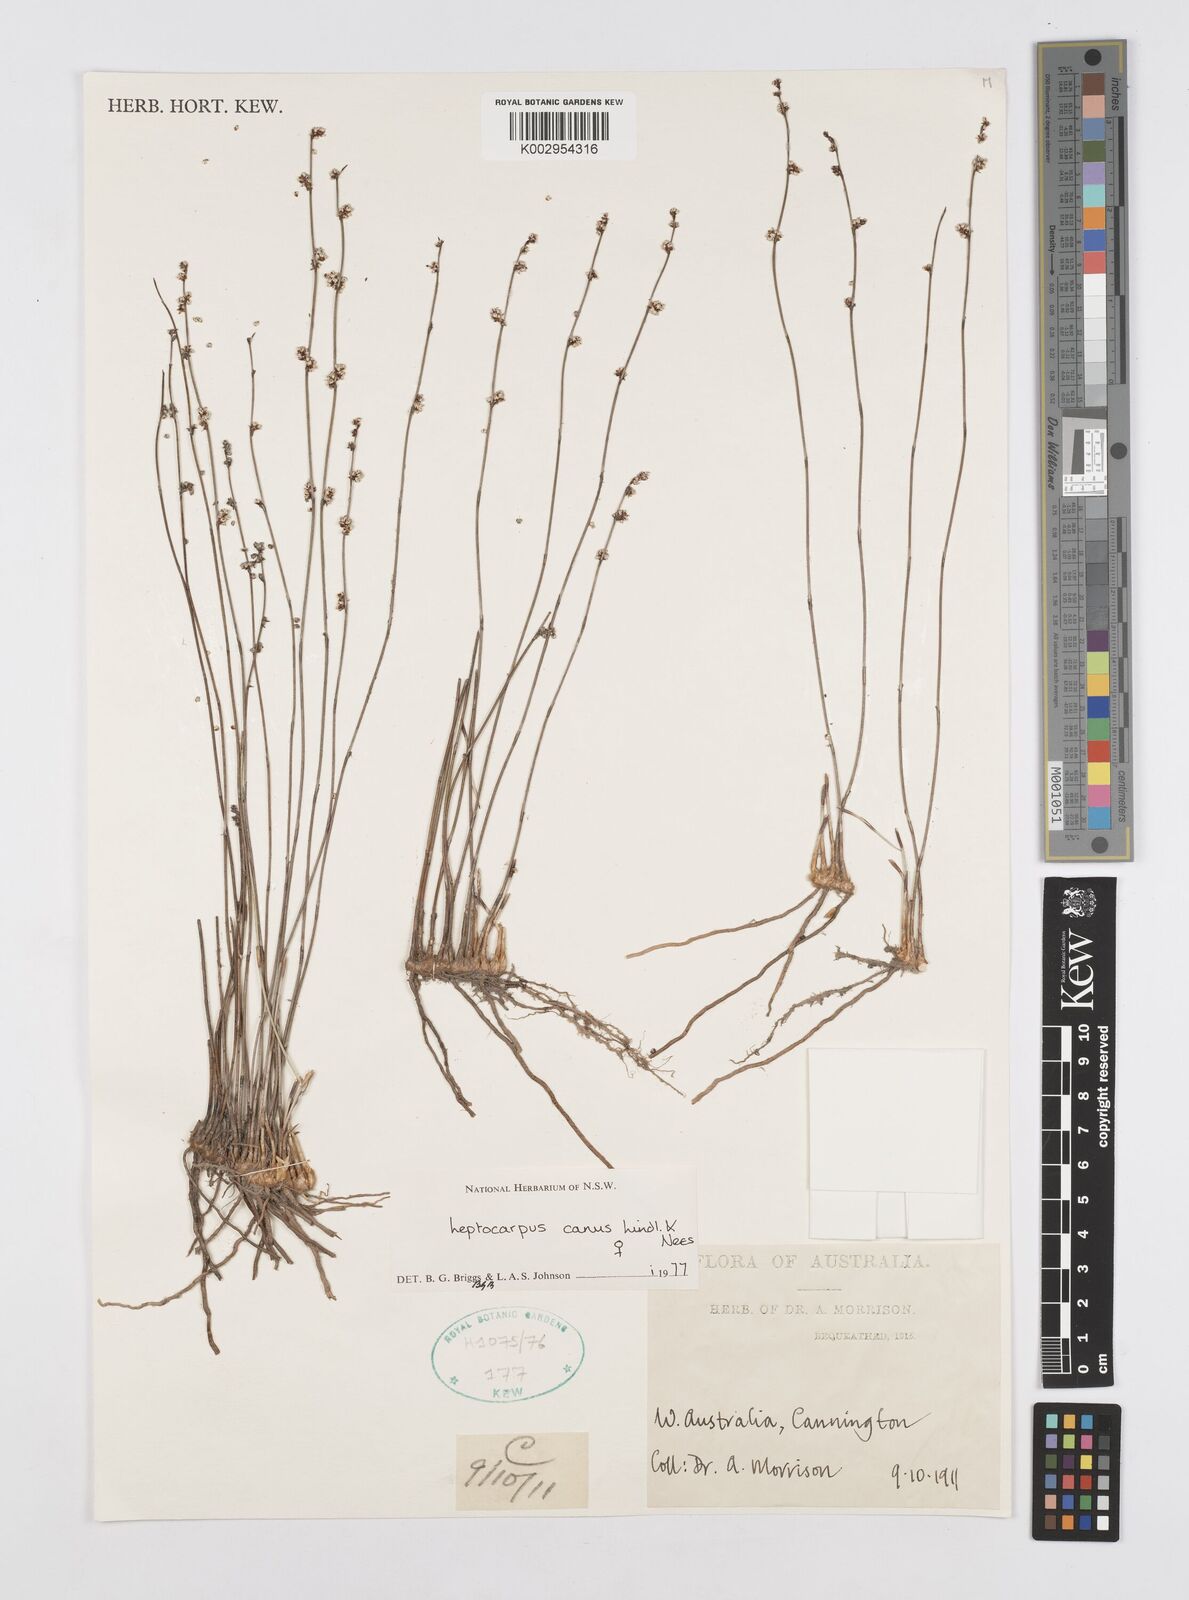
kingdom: Plantae
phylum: Tracheophyta
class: Liliopsida
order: Poales
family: Restionaceae
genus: Leptocarpus
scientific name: Leptocarpus canus
